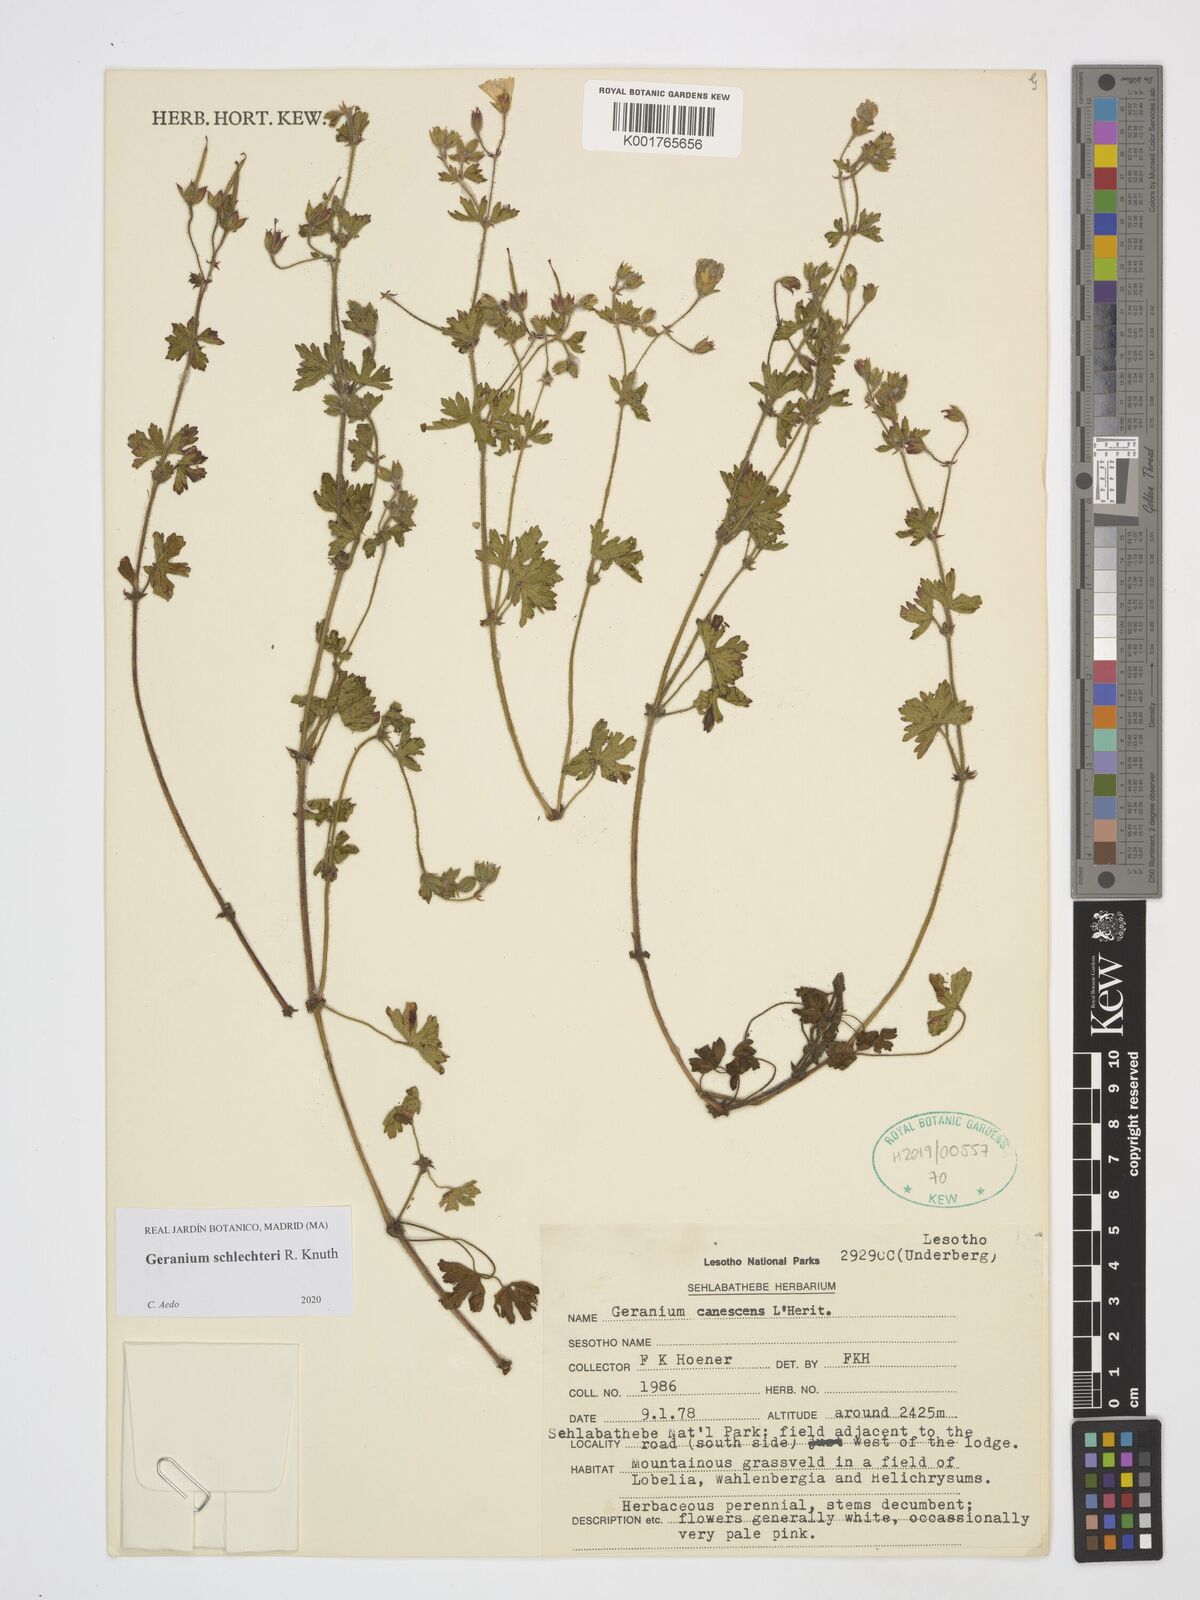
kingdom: Plantae
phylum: Tracheophyta
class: Magnoliopsida
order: Geraniales
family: Geraniaceae
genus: Geranium
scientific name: Geranium schlechteri
